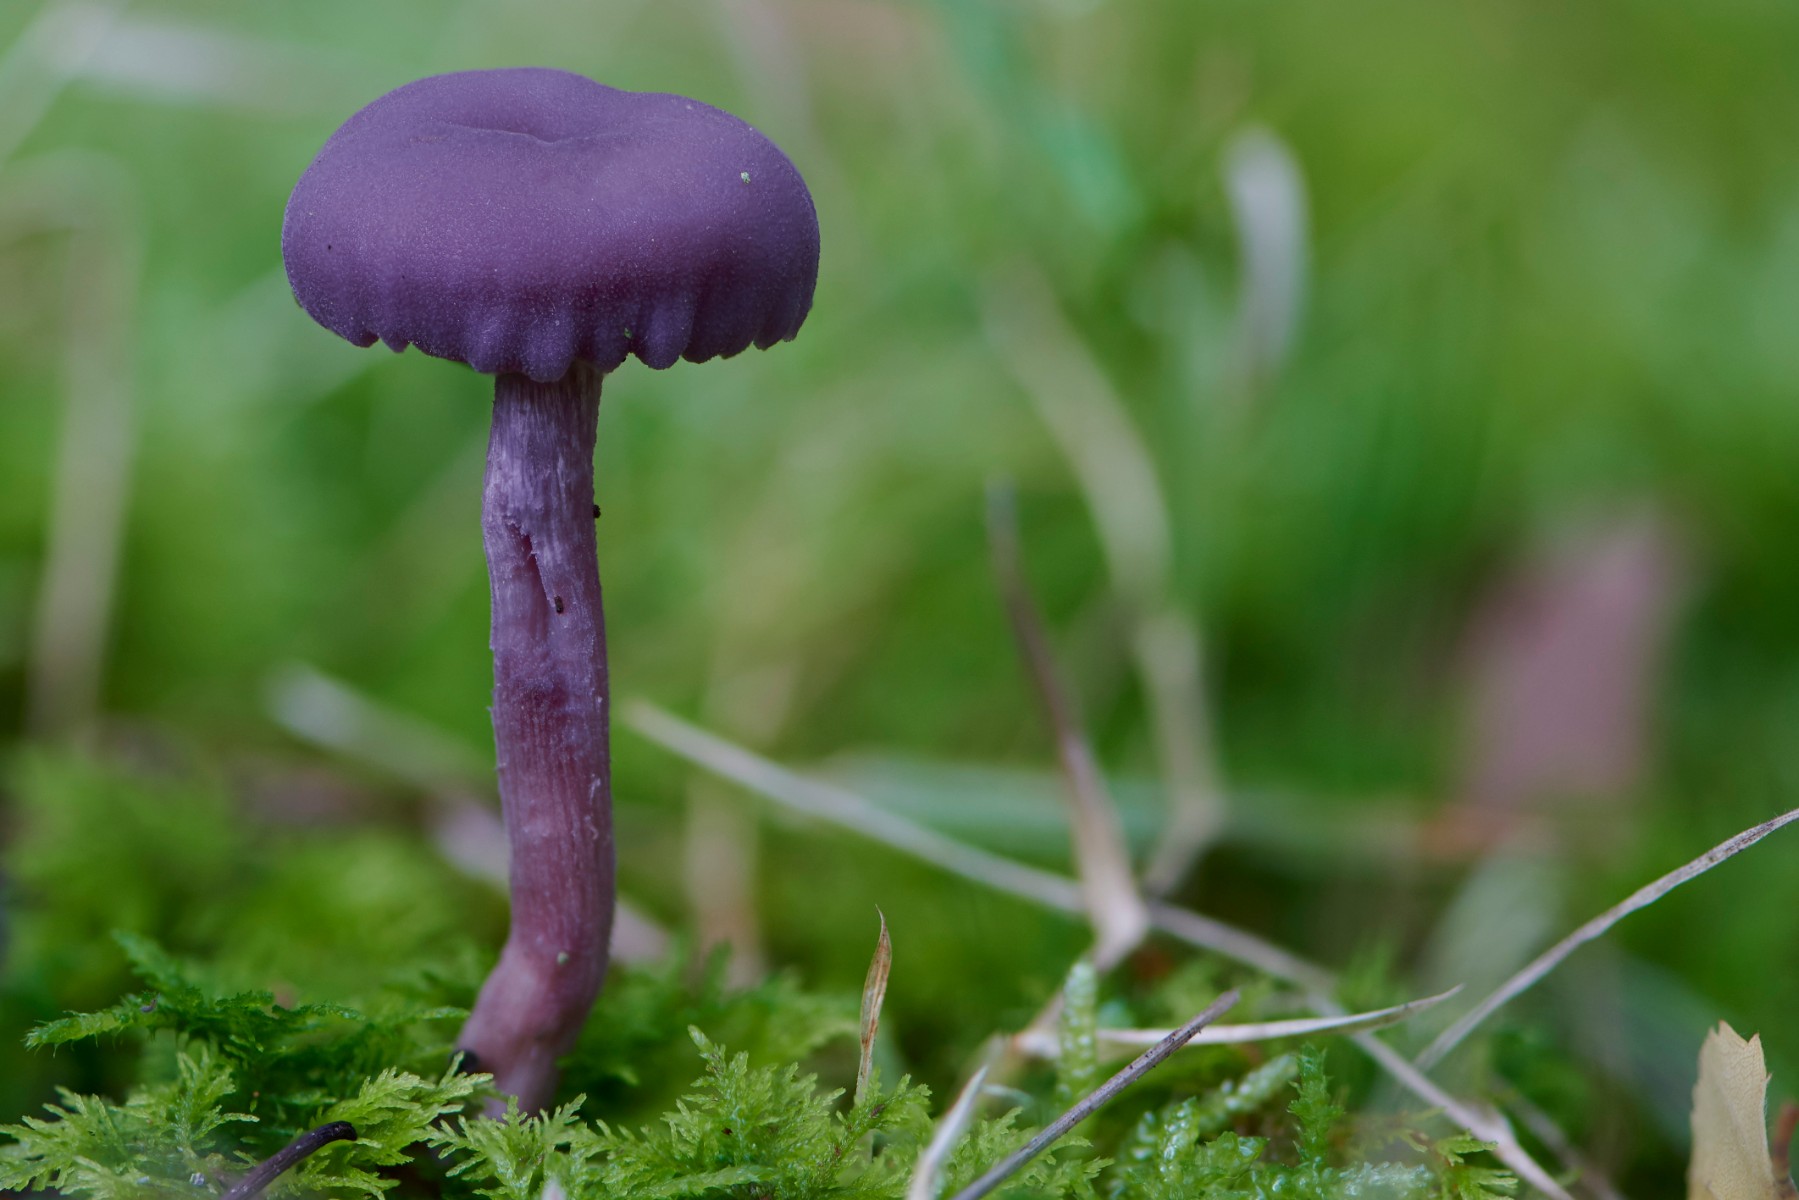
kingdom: Fungi
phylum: Basidiomycota
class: Agaricomycetes
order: Agaricales
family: Hydnangiaceae
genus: Laccaria
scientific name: Laccaria amethystina
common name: violet ametysthat
